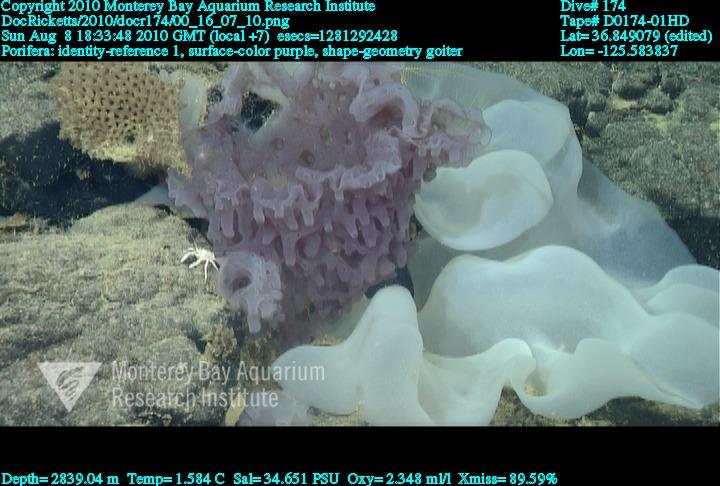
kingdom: Animalia
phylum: Porifera
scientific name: Porifera
